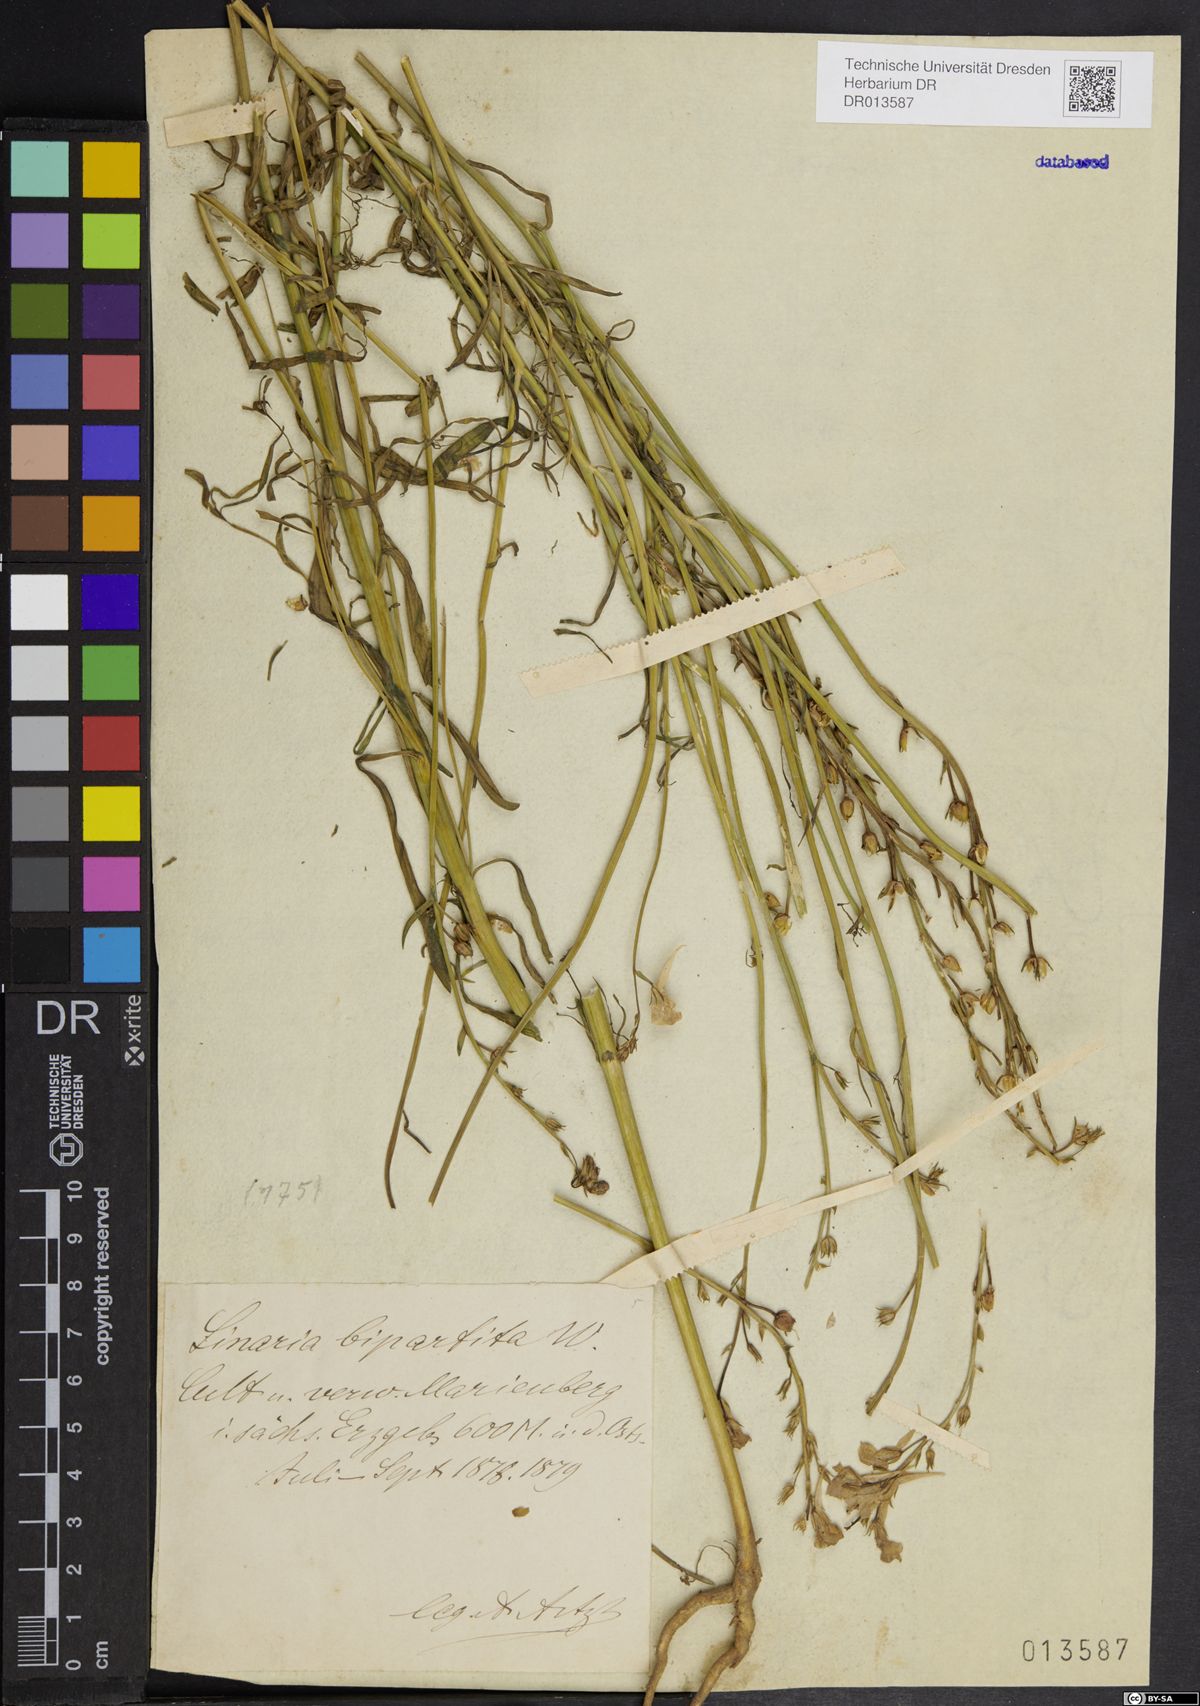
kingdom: Plantae
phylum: Tracheophyta
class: Magnoliopsida
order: Lamiales
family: Plantaginaceae
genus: Linaria
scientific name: Linaria bipartita
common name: Clovenlip toadflax
